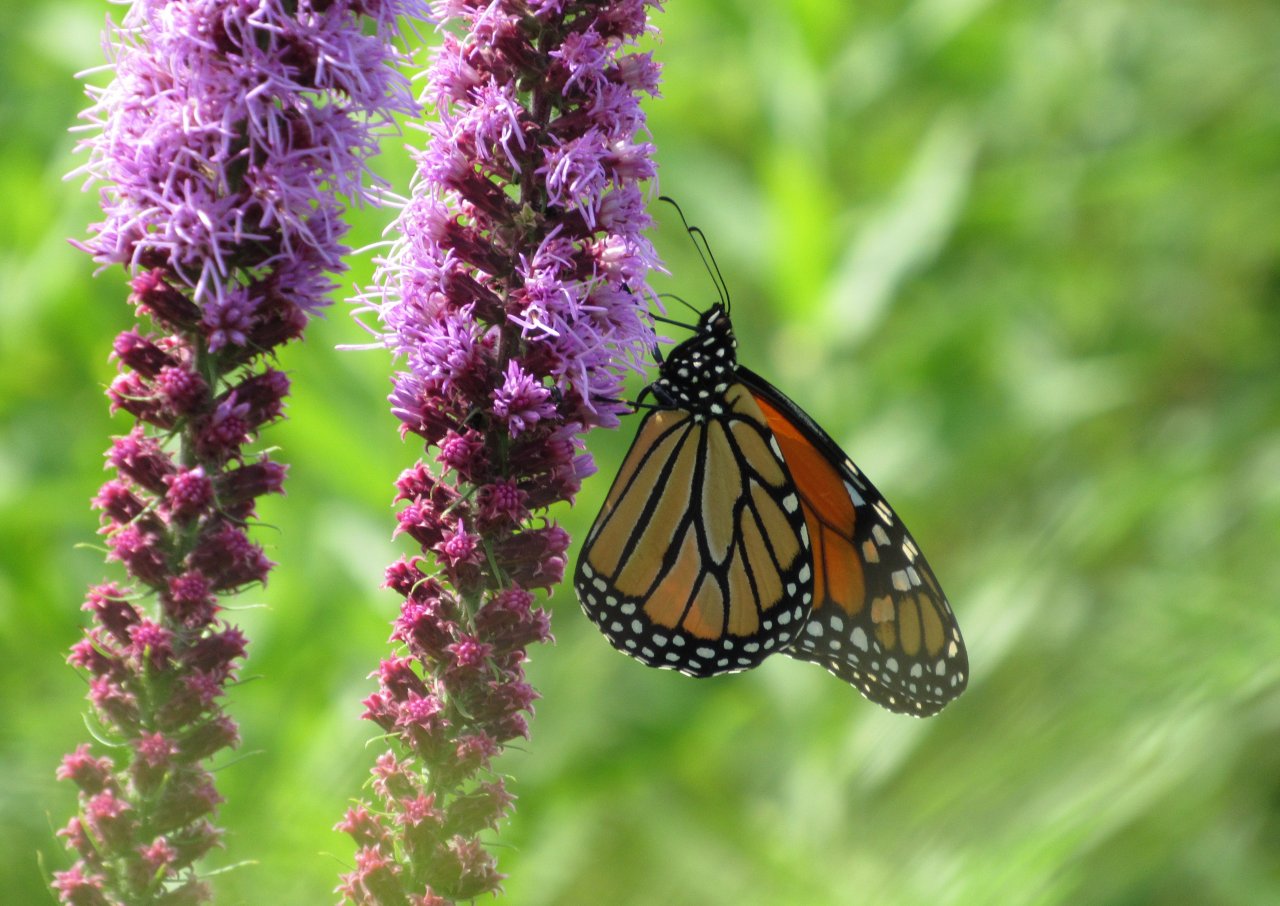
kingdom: Animalia
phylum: Arthropoda
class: Insecta
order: Lepidoptera
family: Nymphalidae
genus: Danaus
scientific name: Danaus plexippus
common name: Monarch
